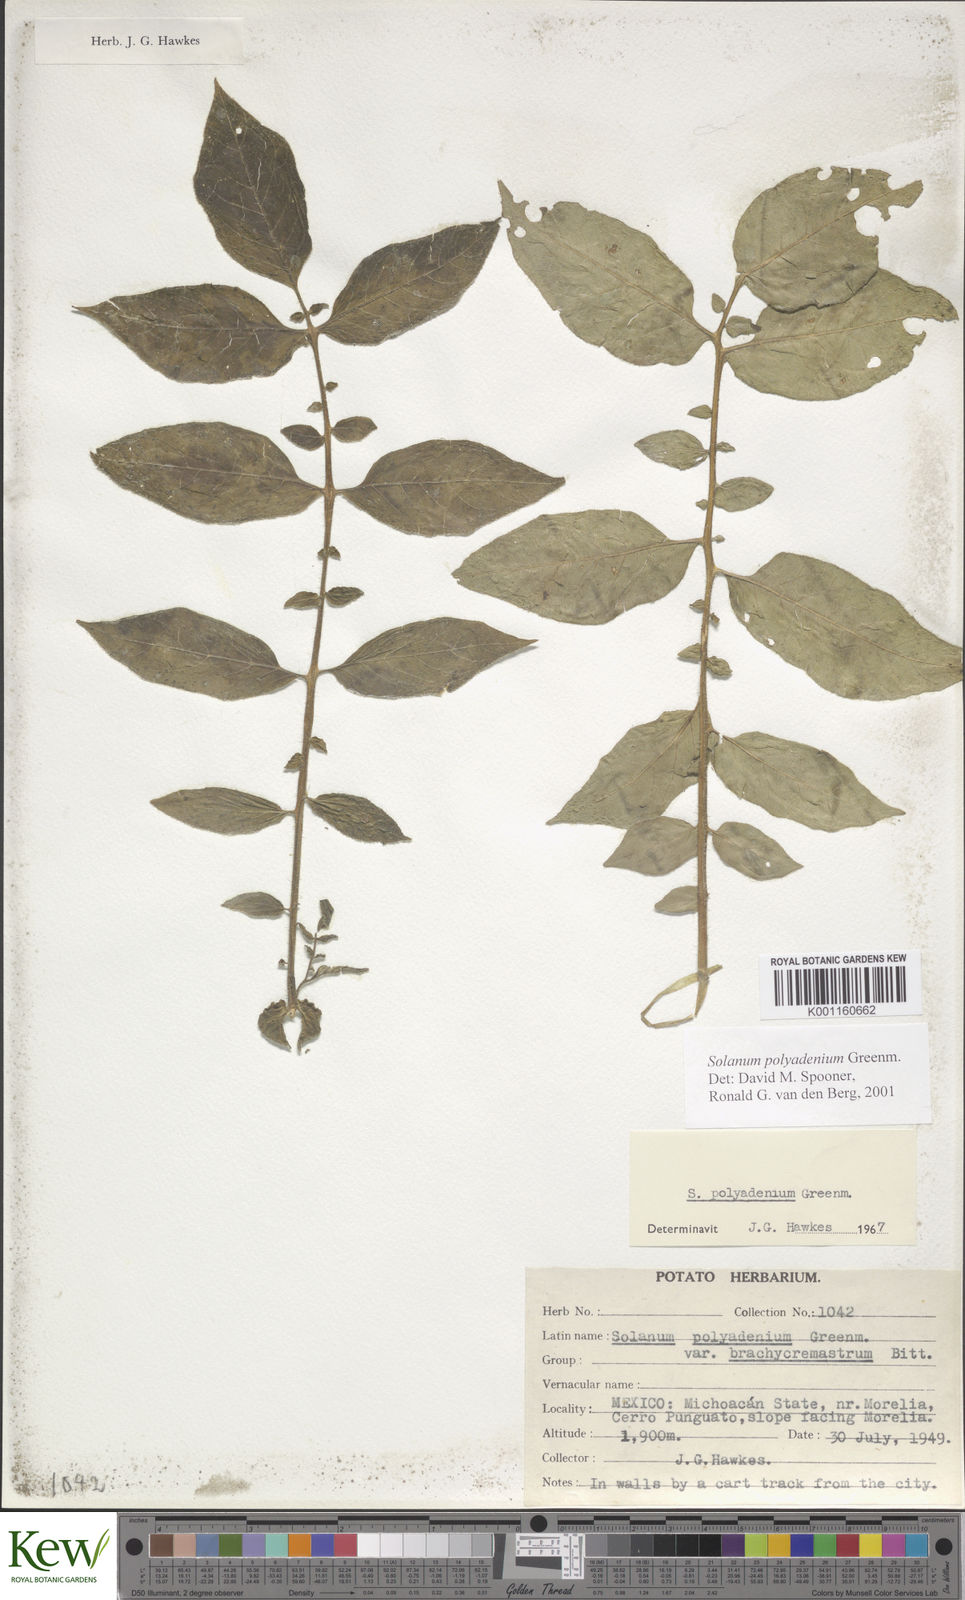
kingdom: Plantae
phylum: Tracheophyta
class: Magnoliopsida
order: Solanales
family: Solanaceae
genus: Solanum
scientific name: Solanum polyadenium
